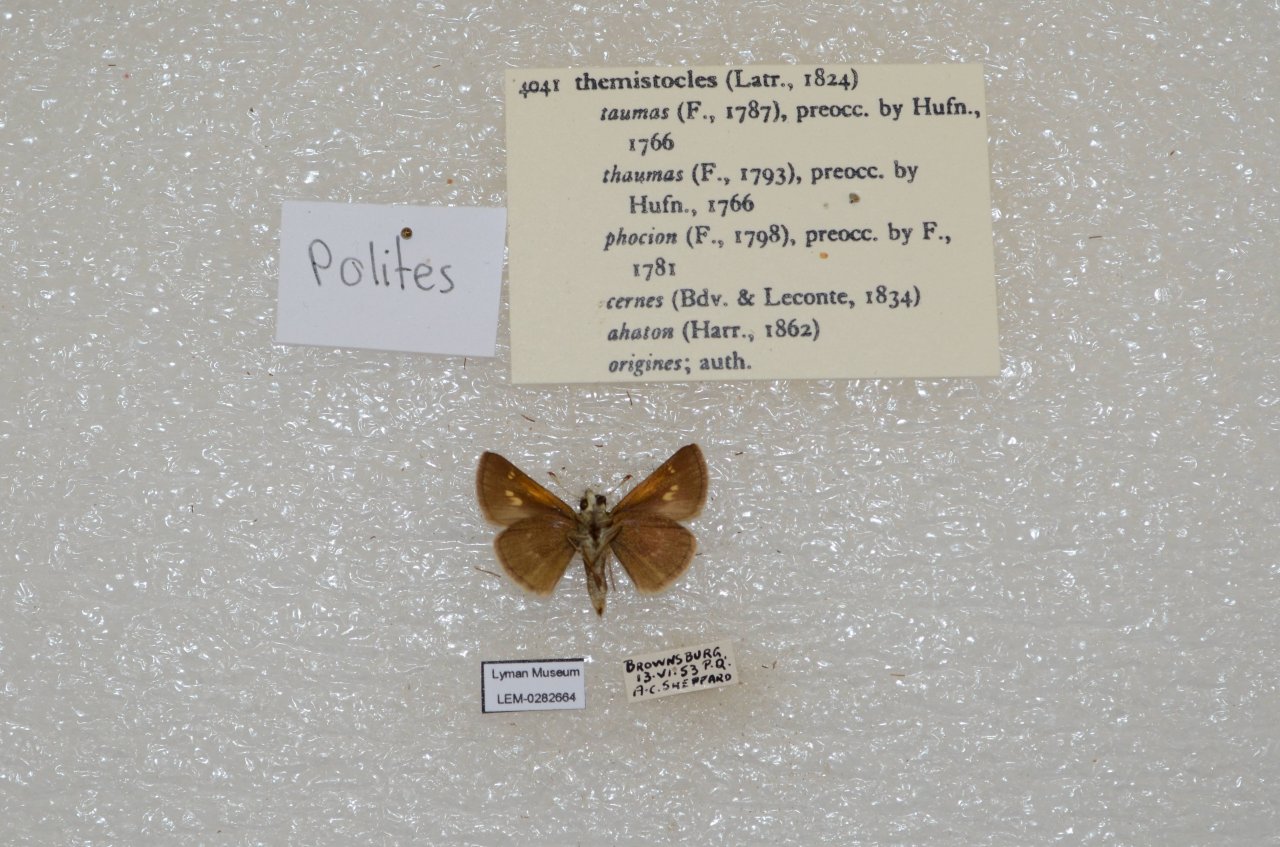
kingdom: Animalia
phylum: Arthropoda
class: Insecta
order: Lepidoptera
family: Hesperiidae
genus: Polites
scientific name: Polites themistocles
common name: Tawny-edged Skipper
